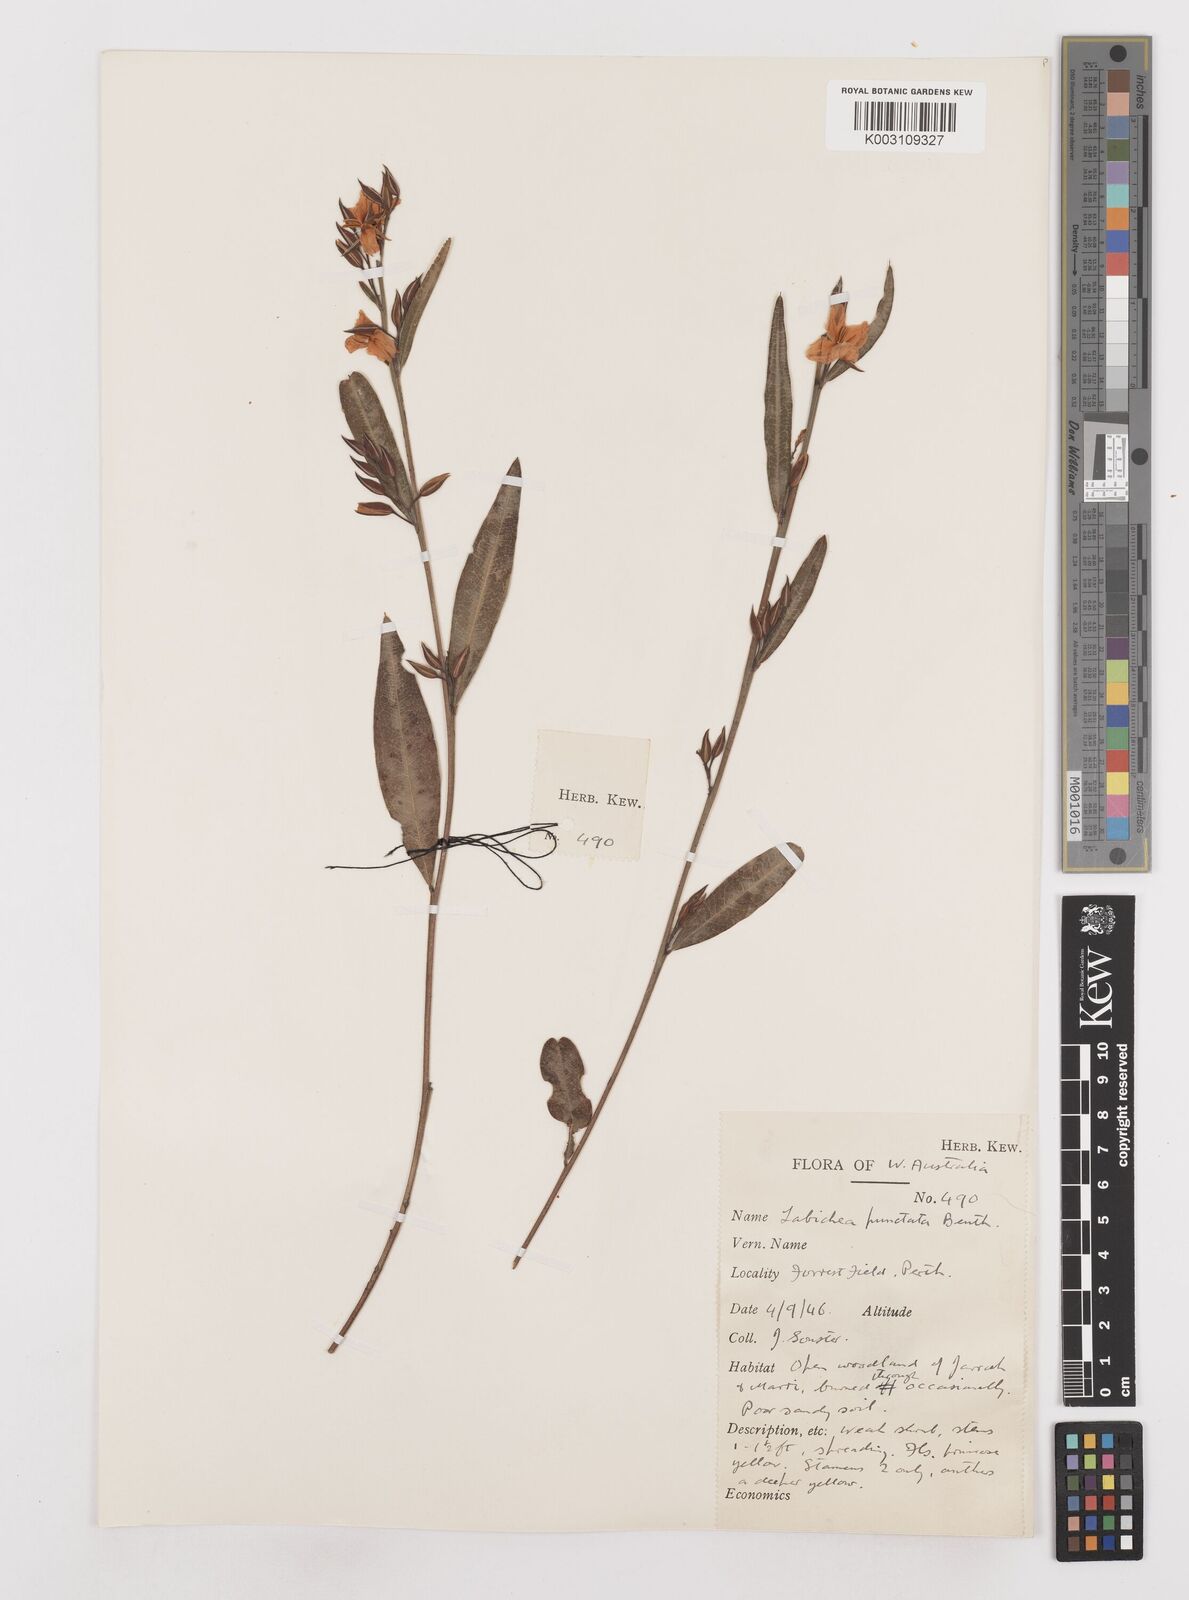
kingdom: Plantae
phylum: Tracheophyta
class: Magnoliopsida
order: Fabales
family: Fabaceae
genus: Labichea
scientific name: Labichea punctata
